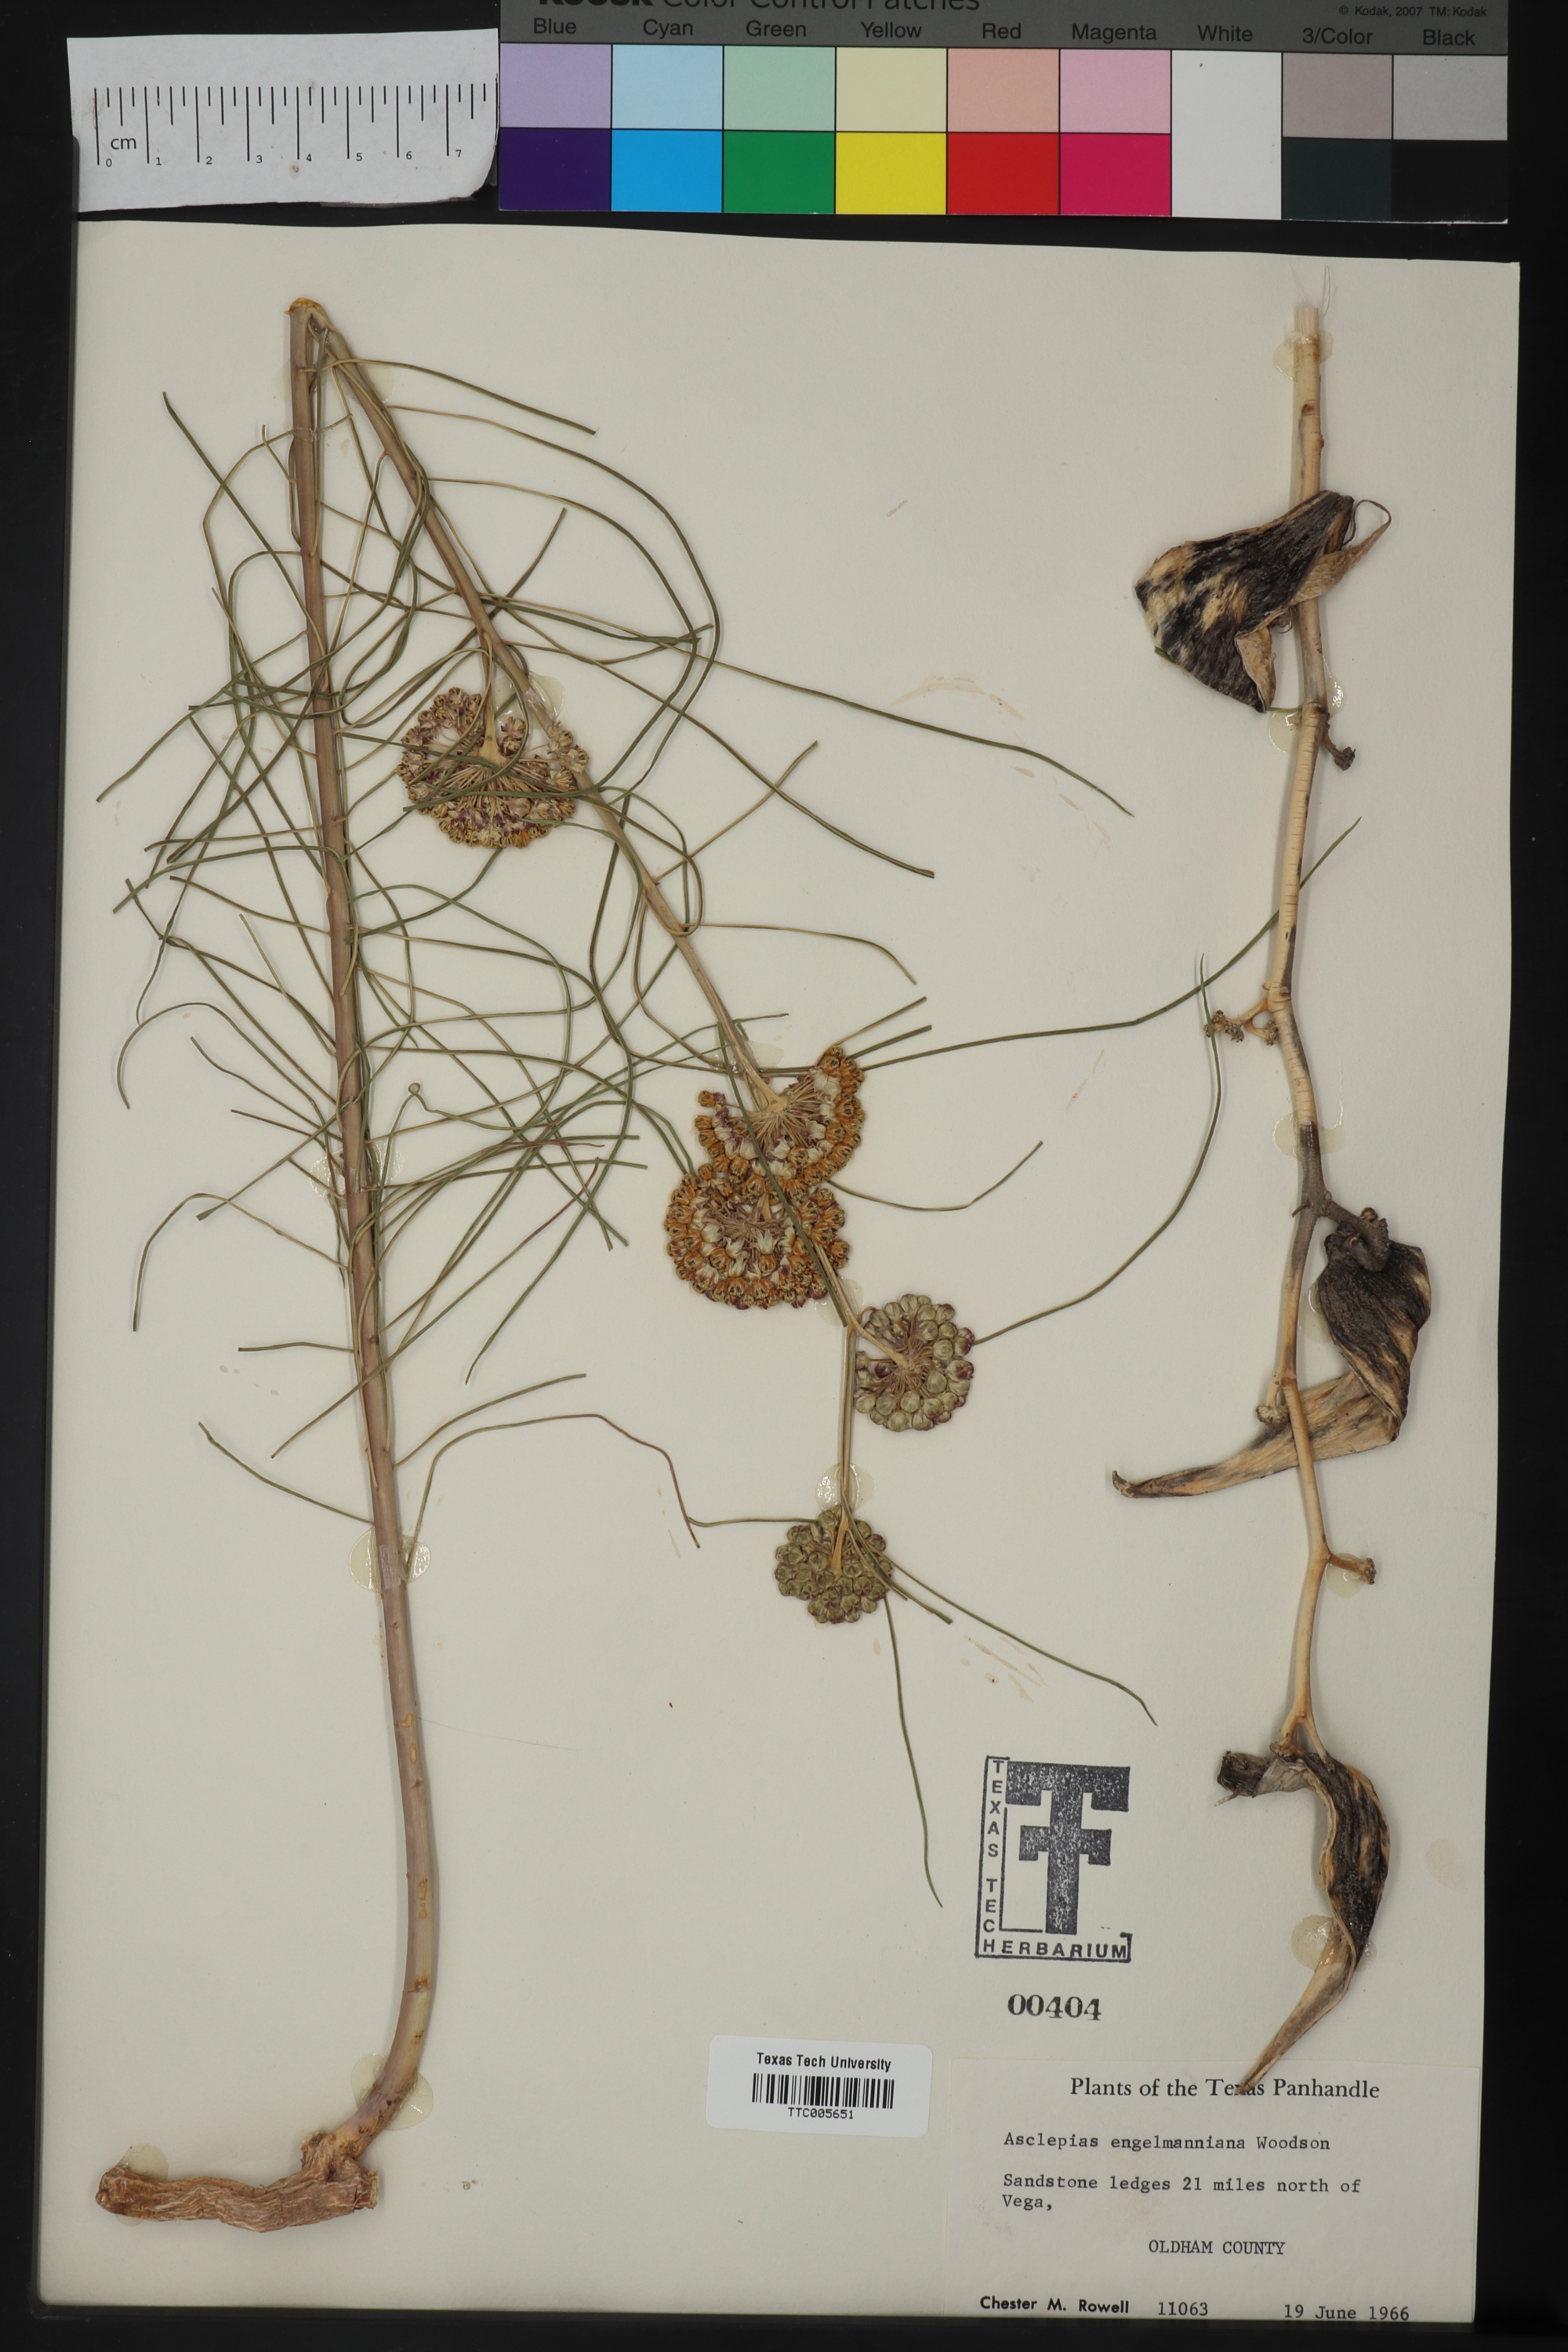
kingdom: Plantae
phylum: Tracheophyta
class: Magnoliopsida
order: Gentianales
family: Apocynaceae
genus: Asclepias
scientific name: Asclepias engelmanniana
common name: Engelmann's milkweed
